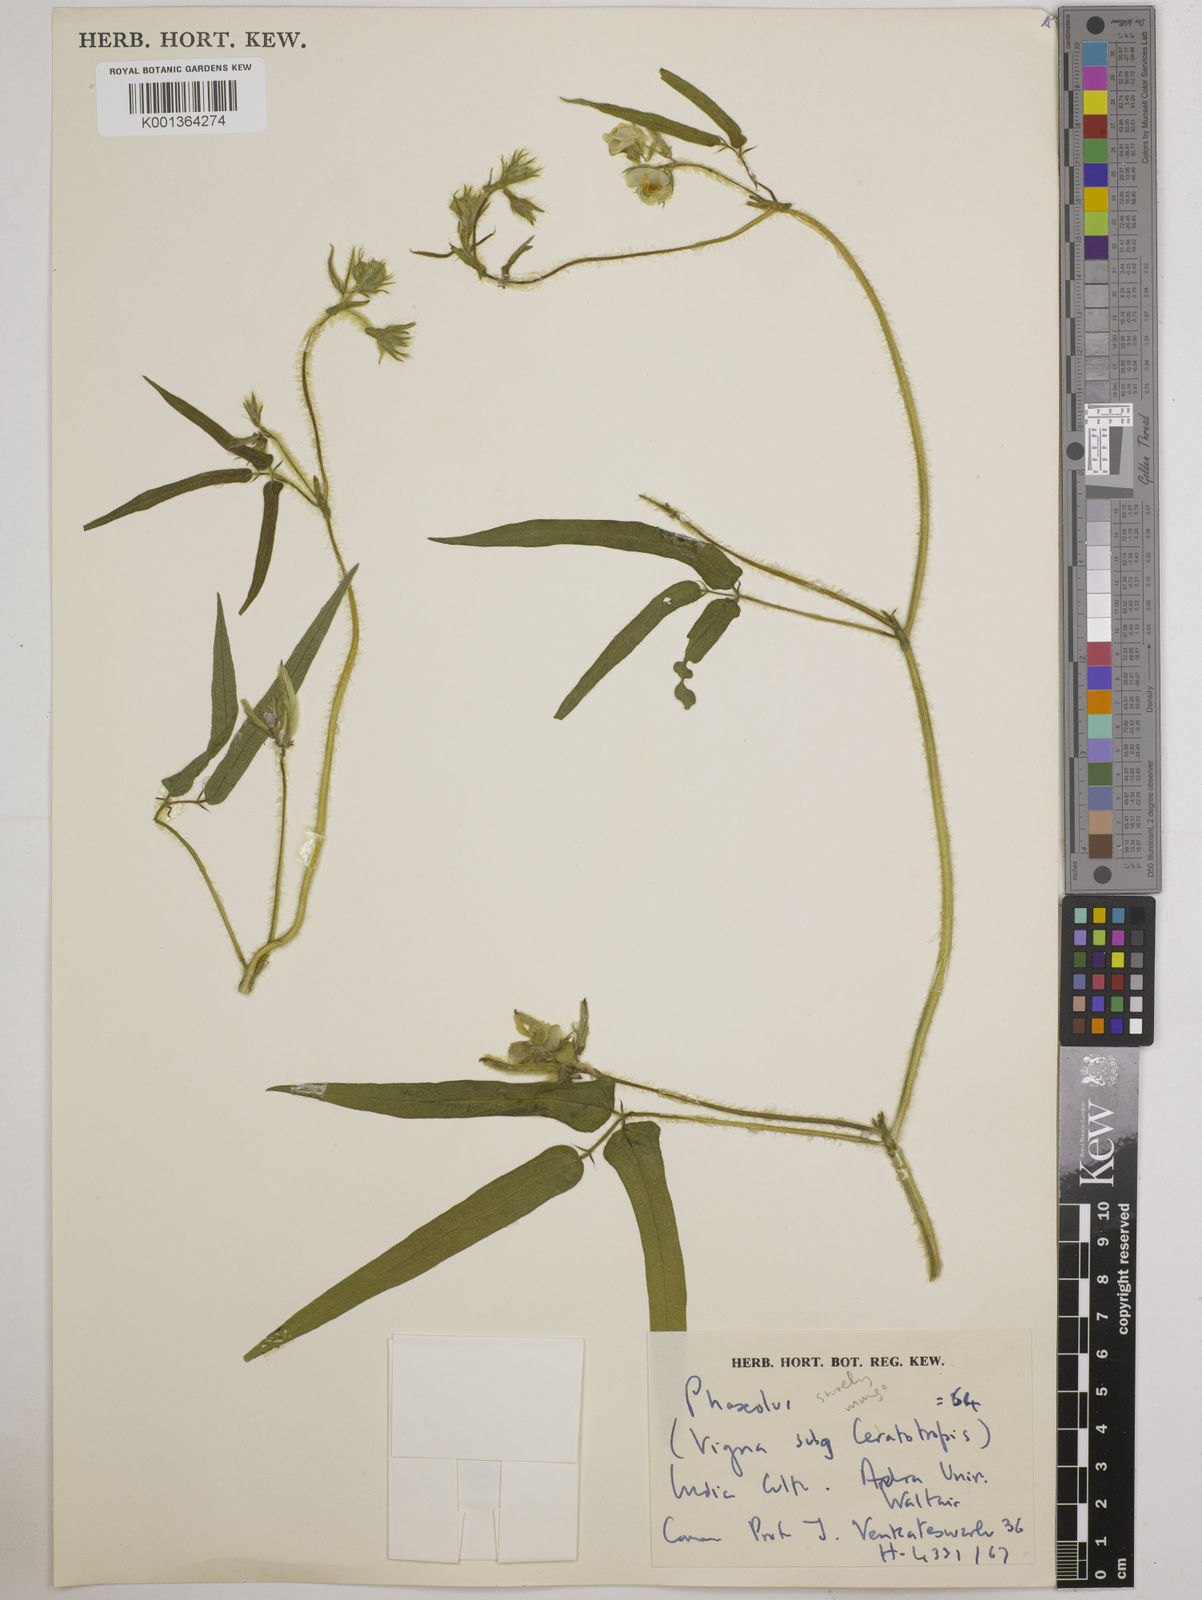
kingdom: Plantae
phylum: Tracheophyta
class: Magnoliopsida
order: Fabales
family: Fabaceae
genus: Vigna
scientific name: Vigna
